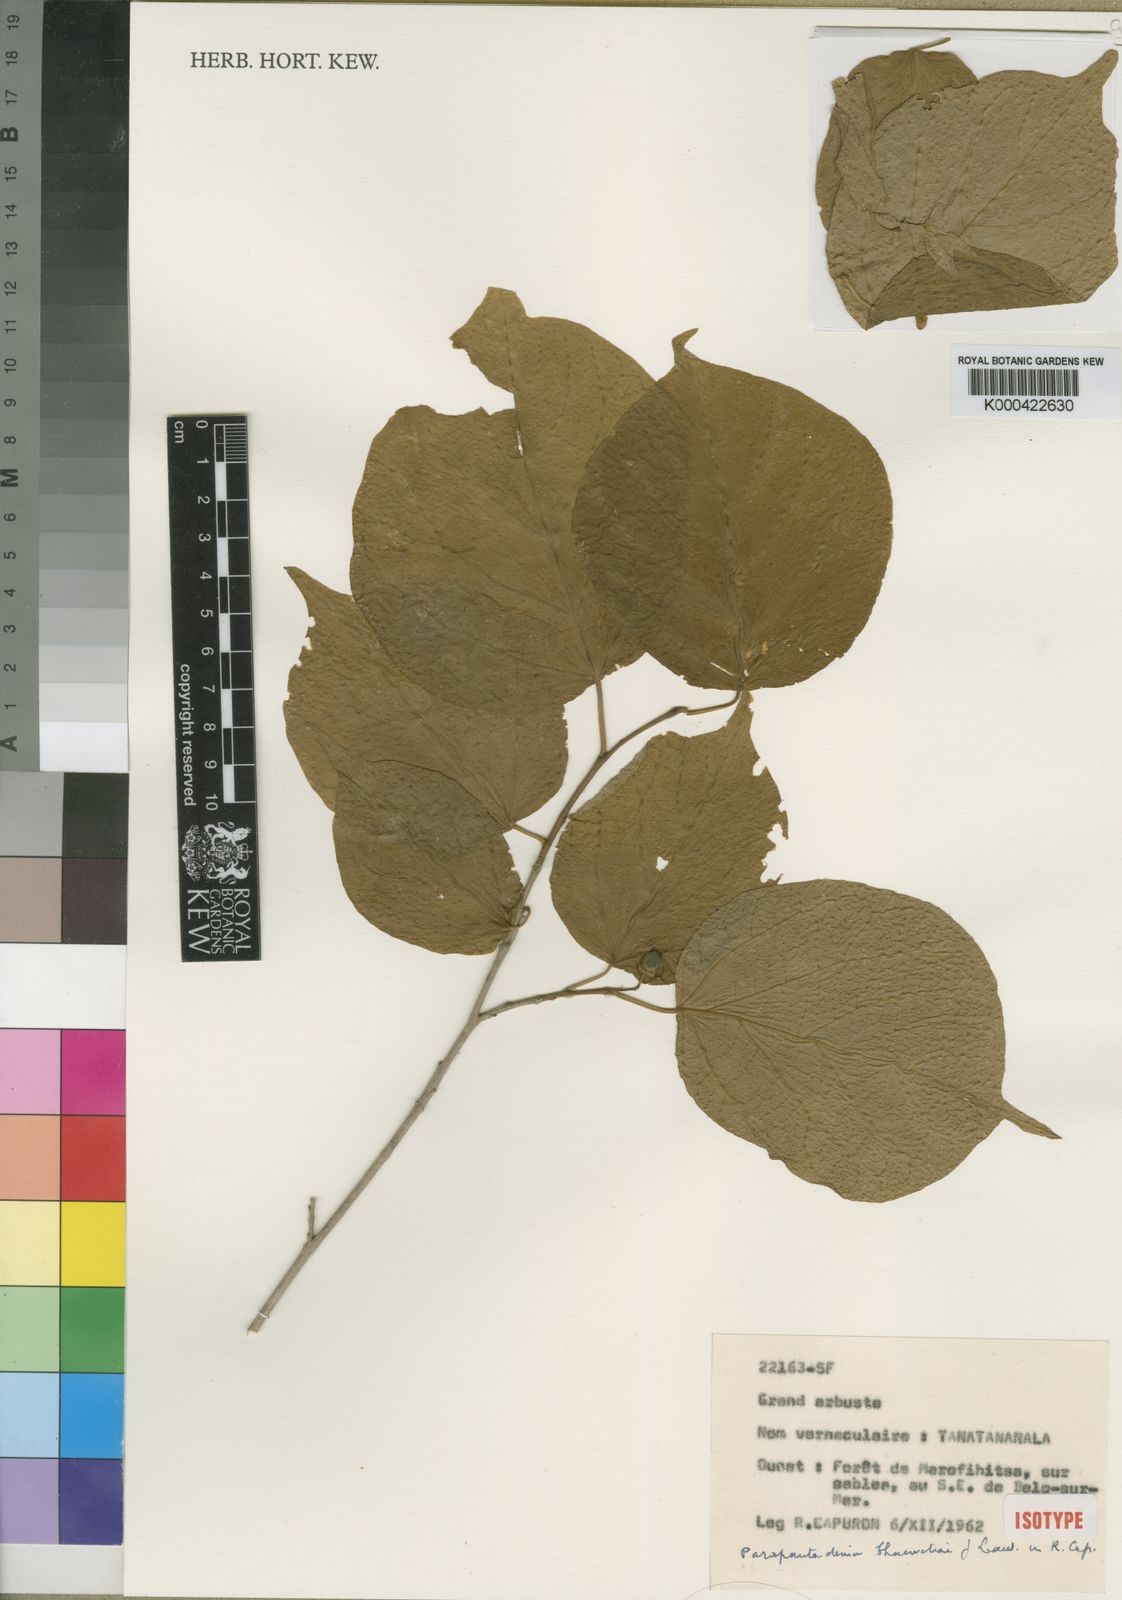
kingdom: Plantae
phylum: Tracheophyta
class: Magnoliopsida
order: Malpighiales
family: Euphorbiaceae
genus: Pantadenia
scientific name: Pantadenia chauvetiae
